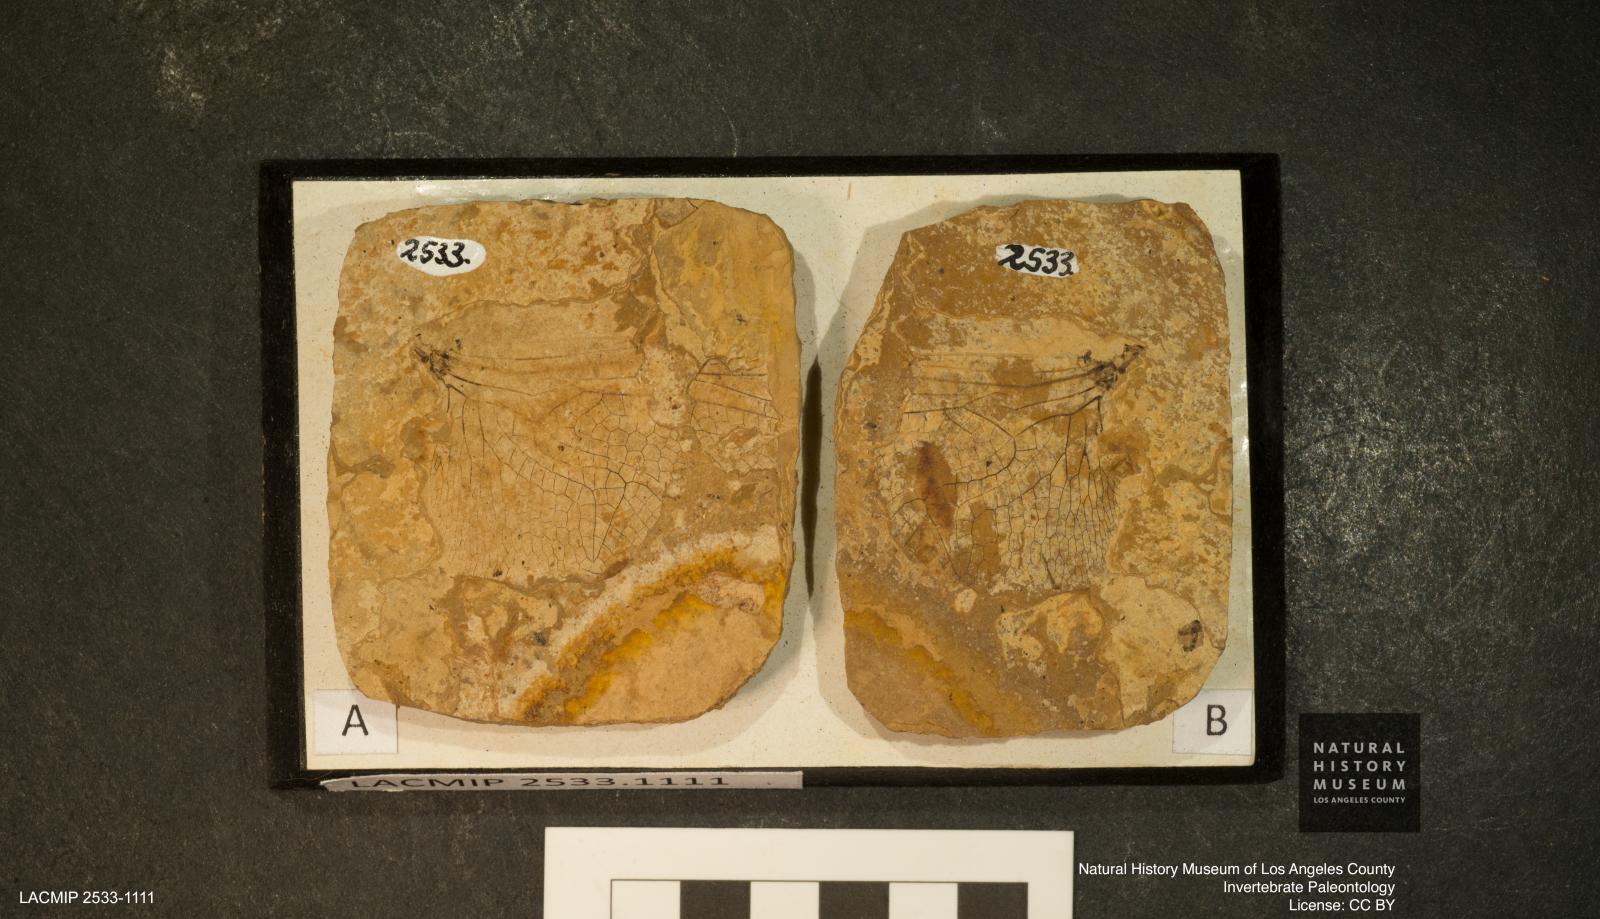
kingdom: Animalia
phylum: Arthropoda
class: Insecta
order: Odonata
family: Libellulidae
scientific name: Libellulidae
